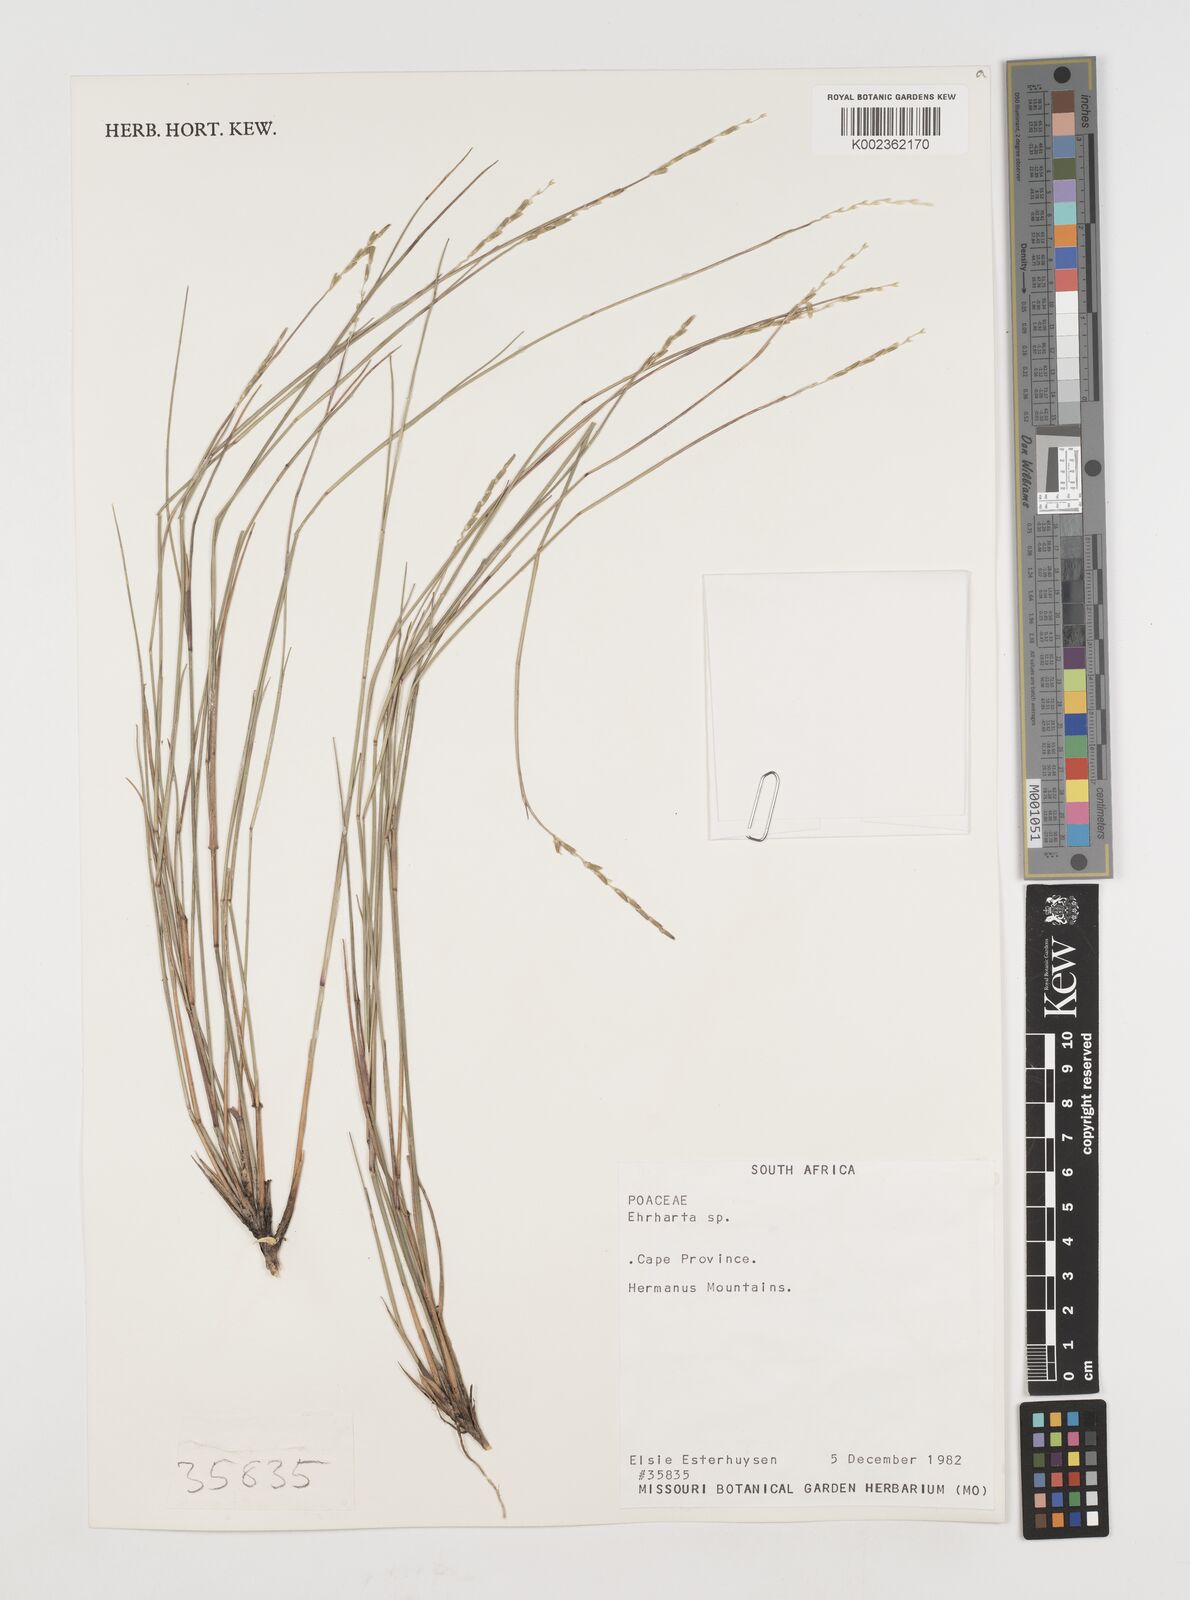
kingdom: Plantae
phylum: Tracheophyta
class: Liliopsida
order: Poales
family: Poaceae
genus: Ehrharta
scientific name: Ehrharta
